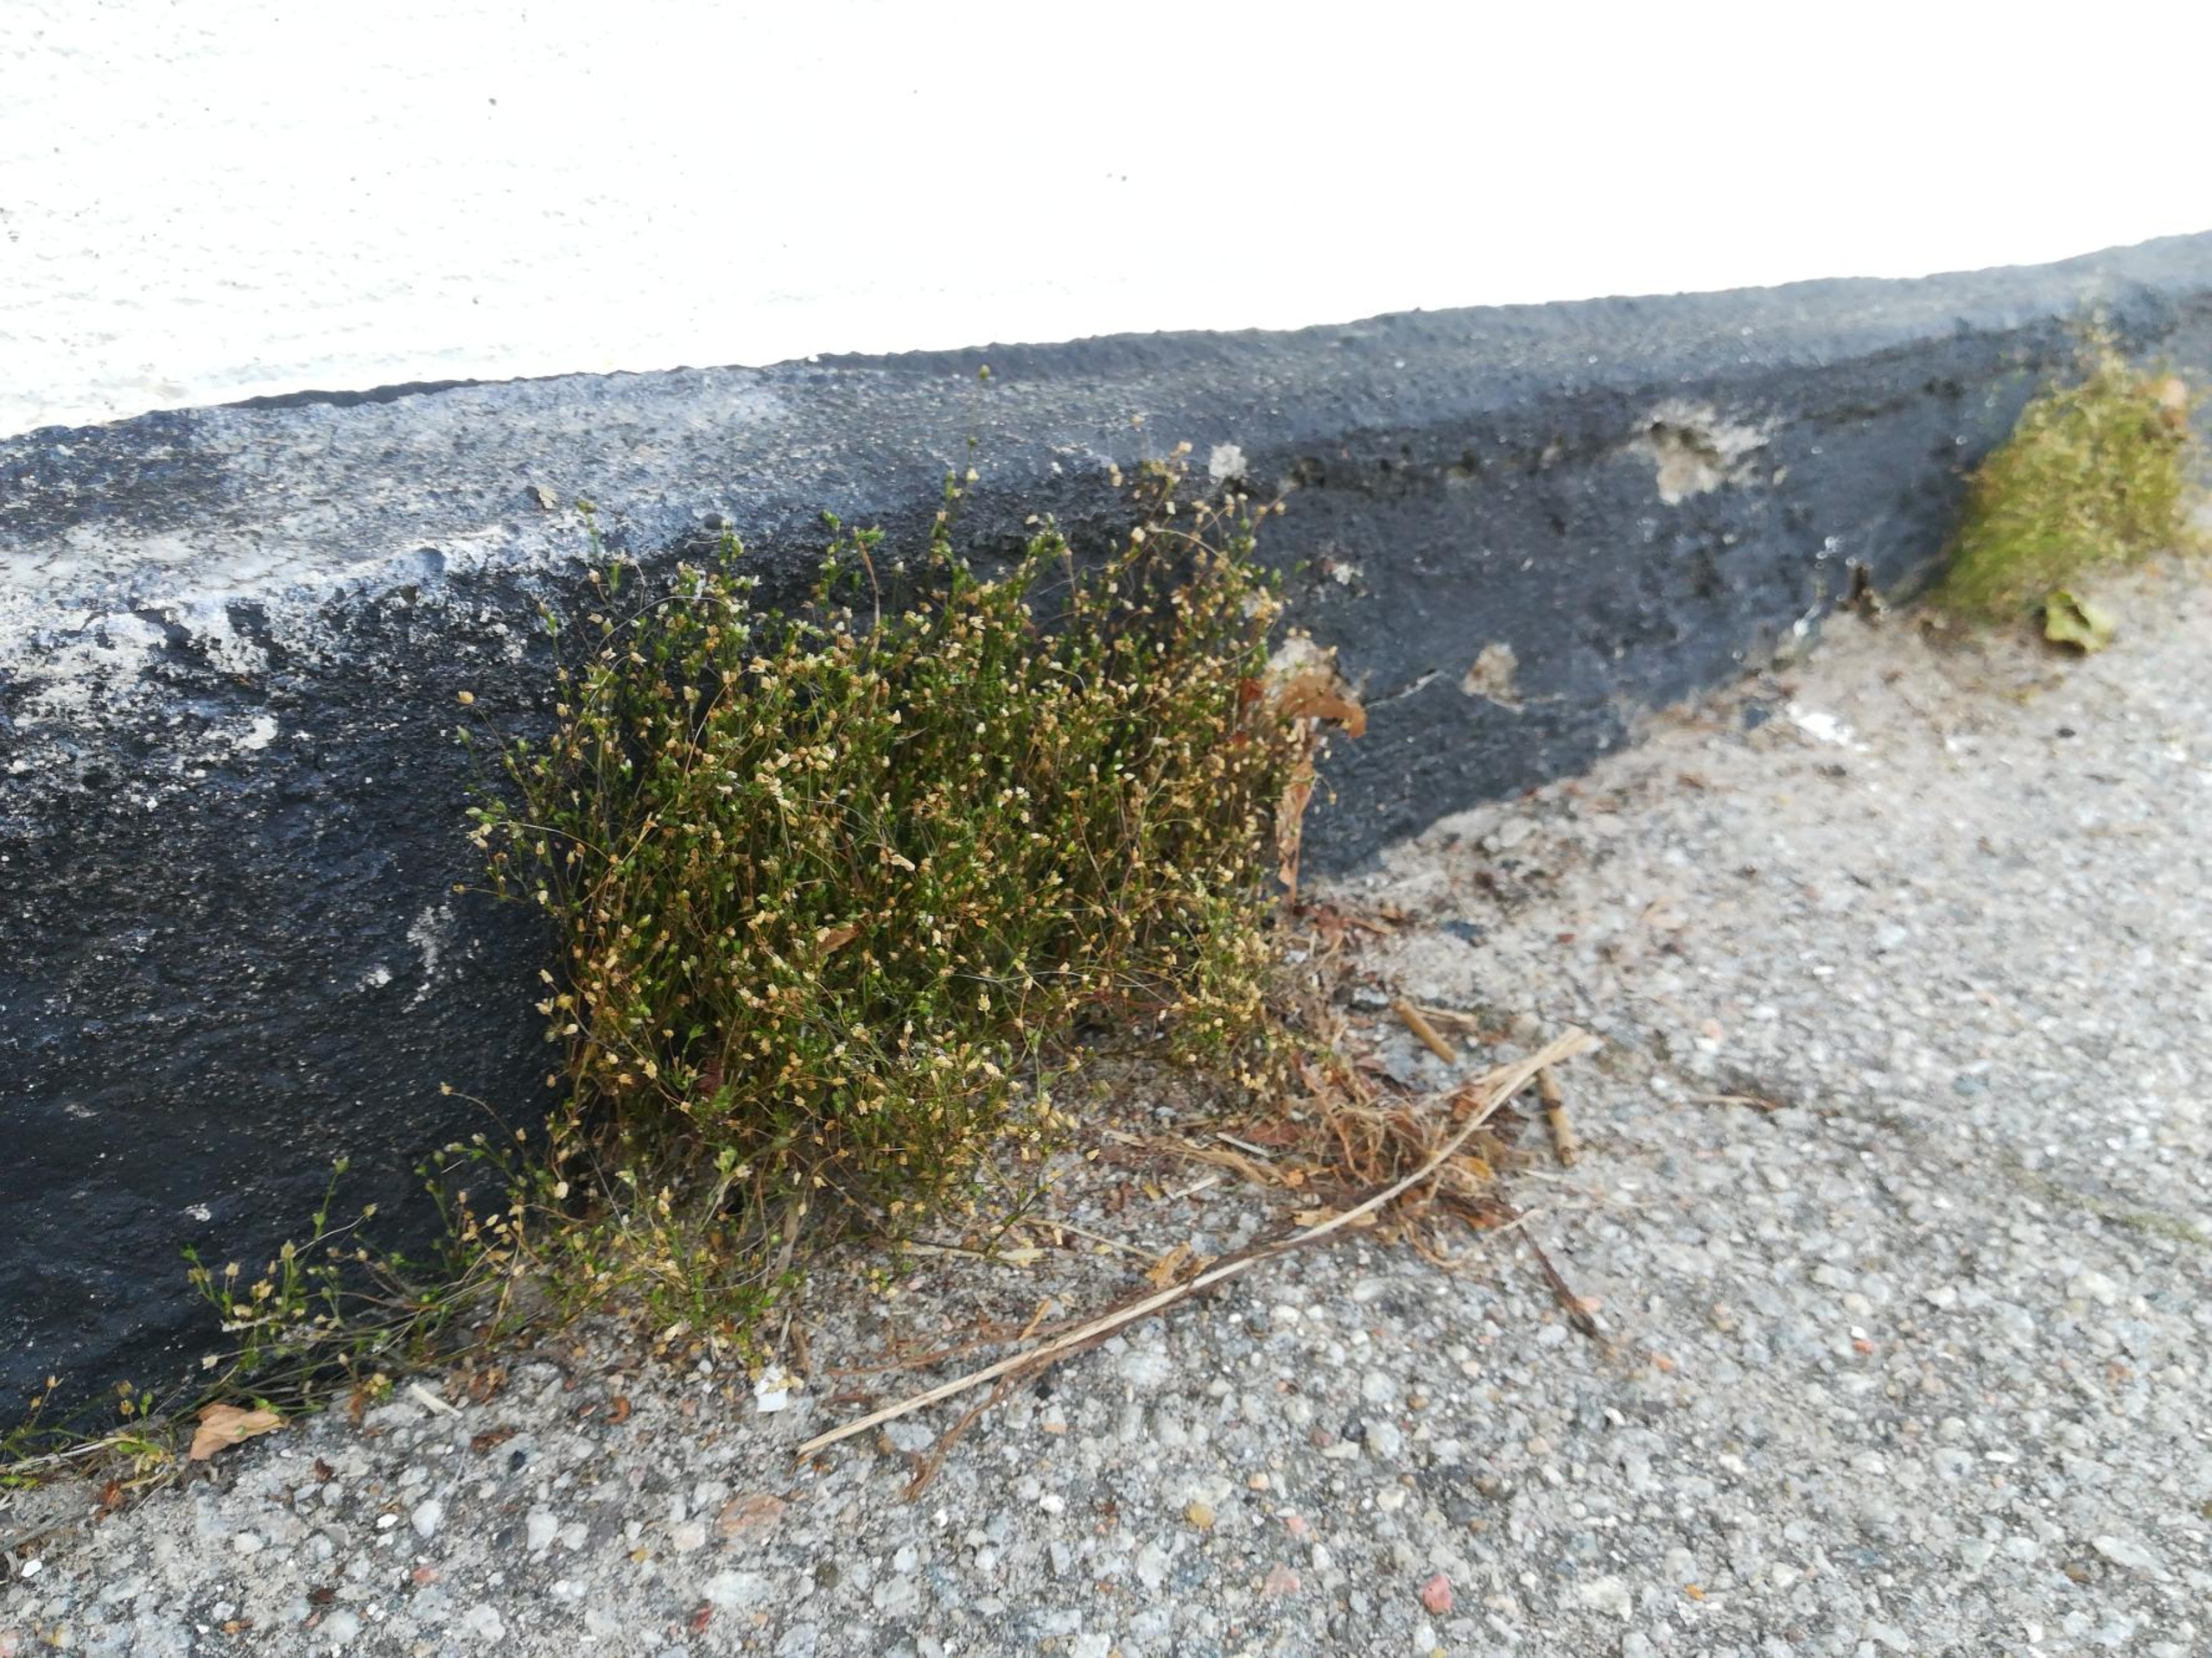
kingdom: Plantae
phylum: Tracheophyta
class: Magnoliopsida
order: Caryophyllales
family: Caryophyllaceae
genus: Sagina
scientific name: Sagina micropetala
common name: Håret firling
